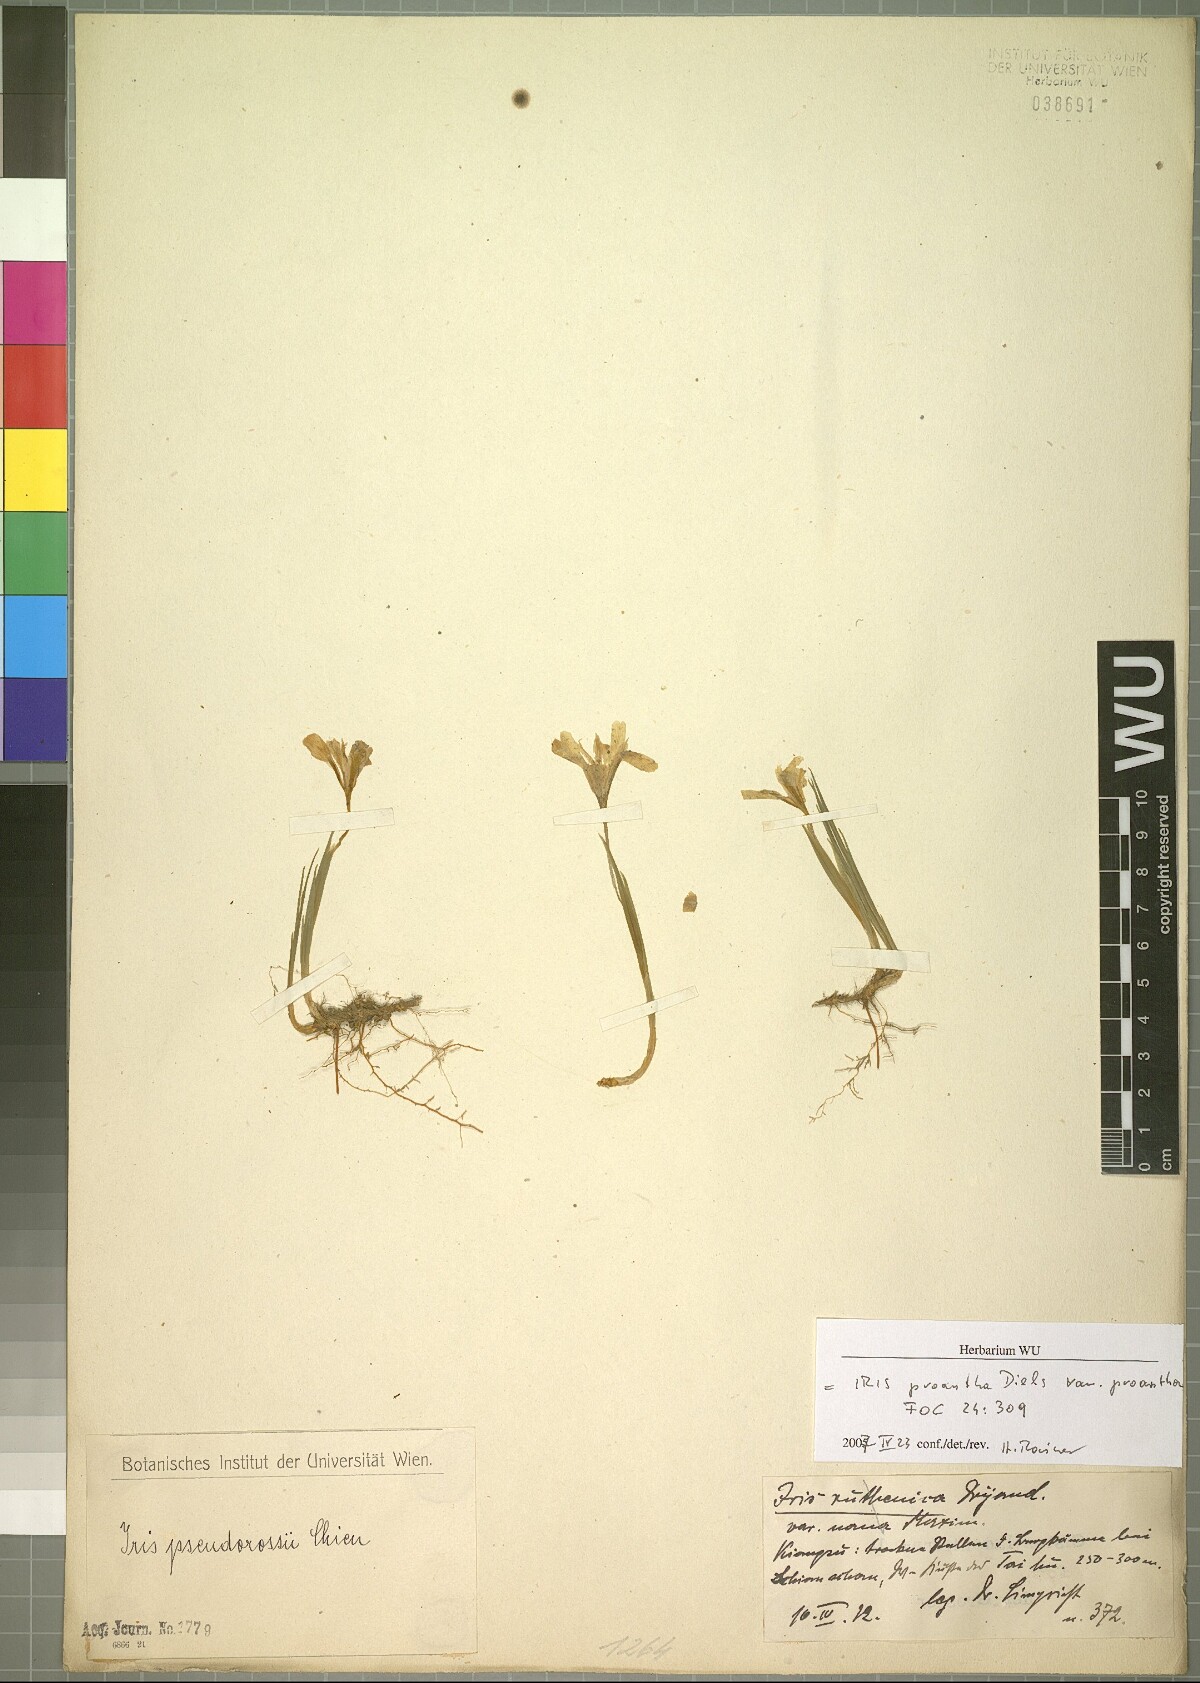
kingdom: Plantae
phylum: Tracheophyta
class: Liliopsida
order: Asparagales
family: Iridaceae
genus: Iris
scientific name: Iris proantha
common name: Small iris
